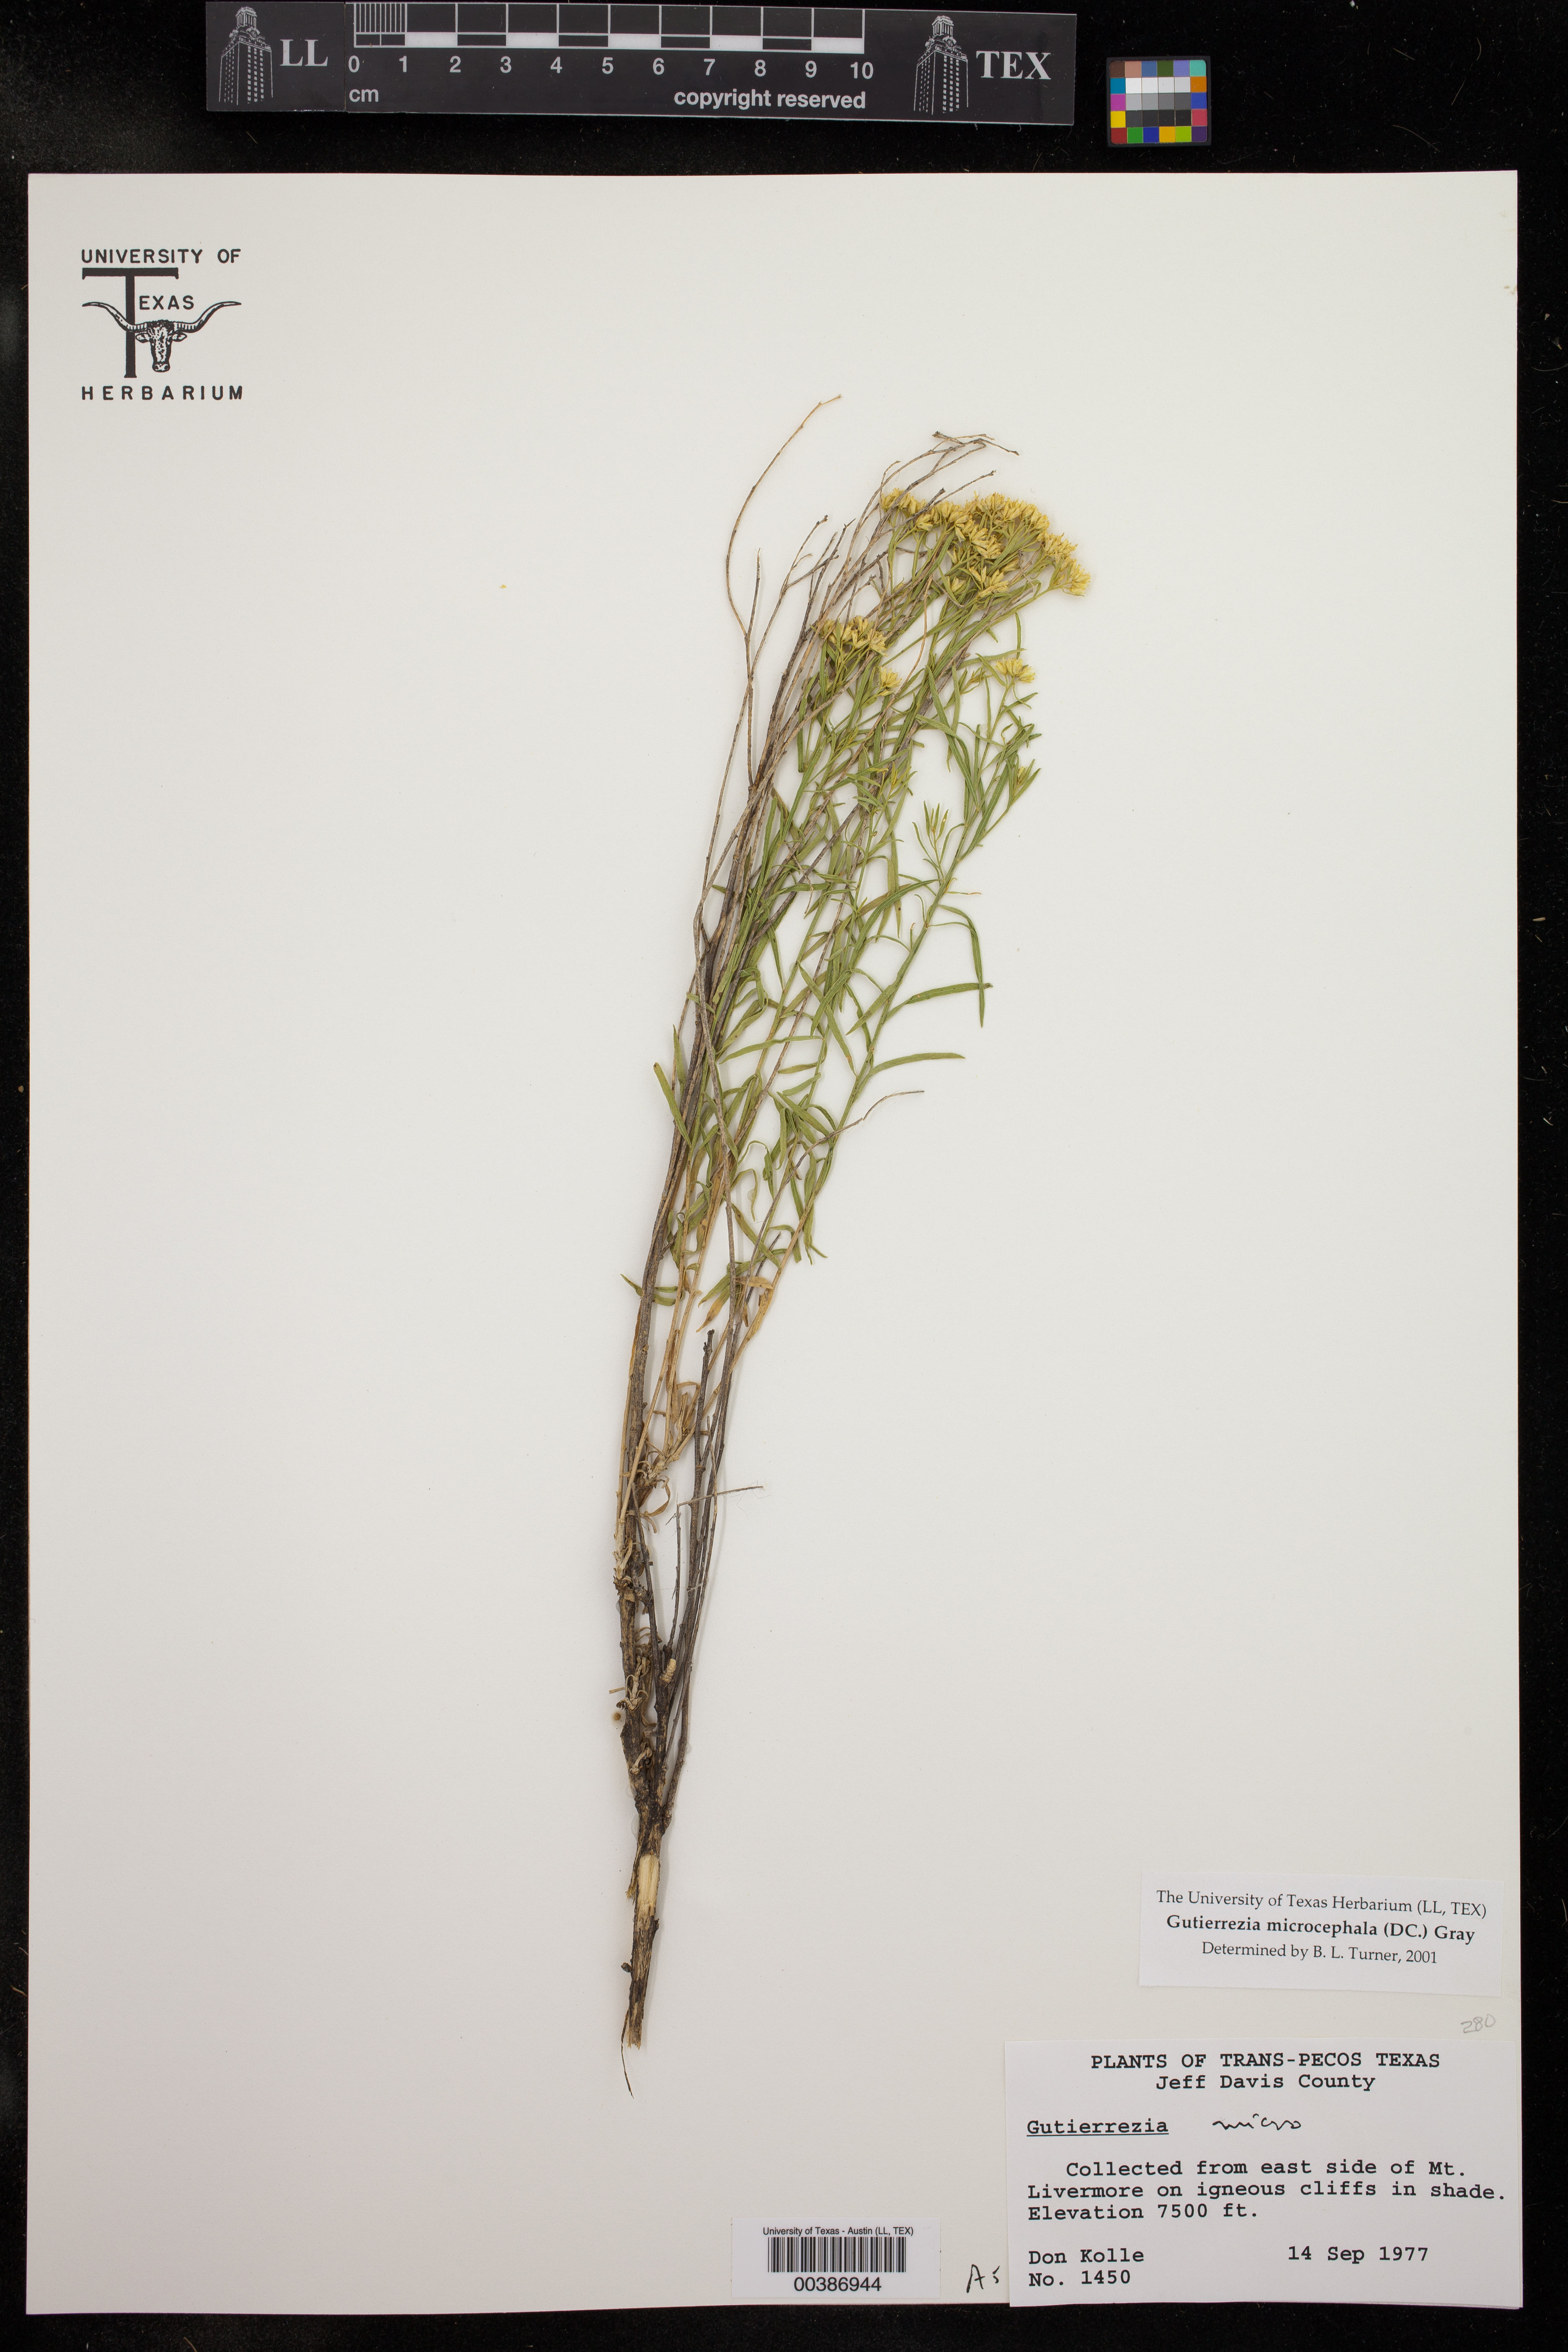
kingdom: Plantae
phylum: Tracheophyta
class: Magnoliopsida
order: Asterales
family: Asteraceae
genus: Gutierrezia
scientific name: Gutierrezia microcephala
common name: Thread snakeweed
